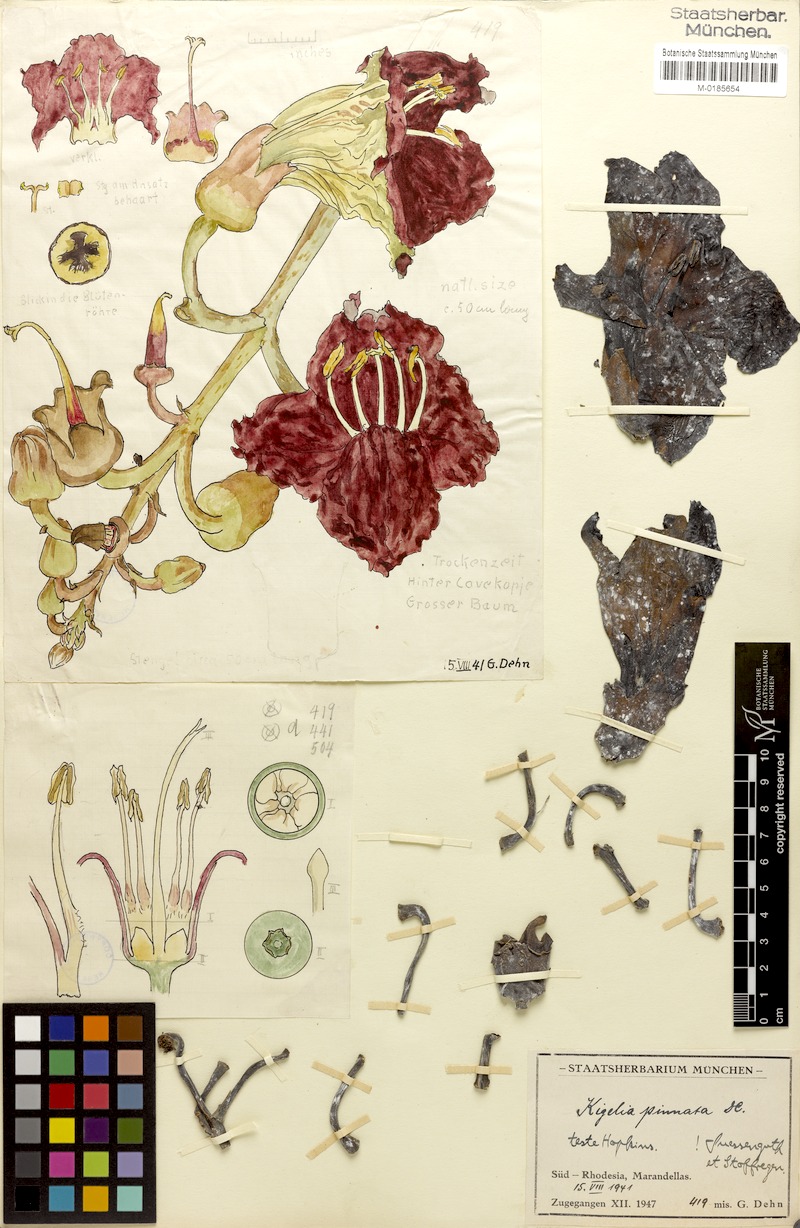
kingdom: Plantae
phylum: Tracheophyta
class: Magnoliopsida
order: Lamiales
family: Bignoniaceae
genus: Kigelia
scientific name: Kigelia africana
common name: Sausage tree
